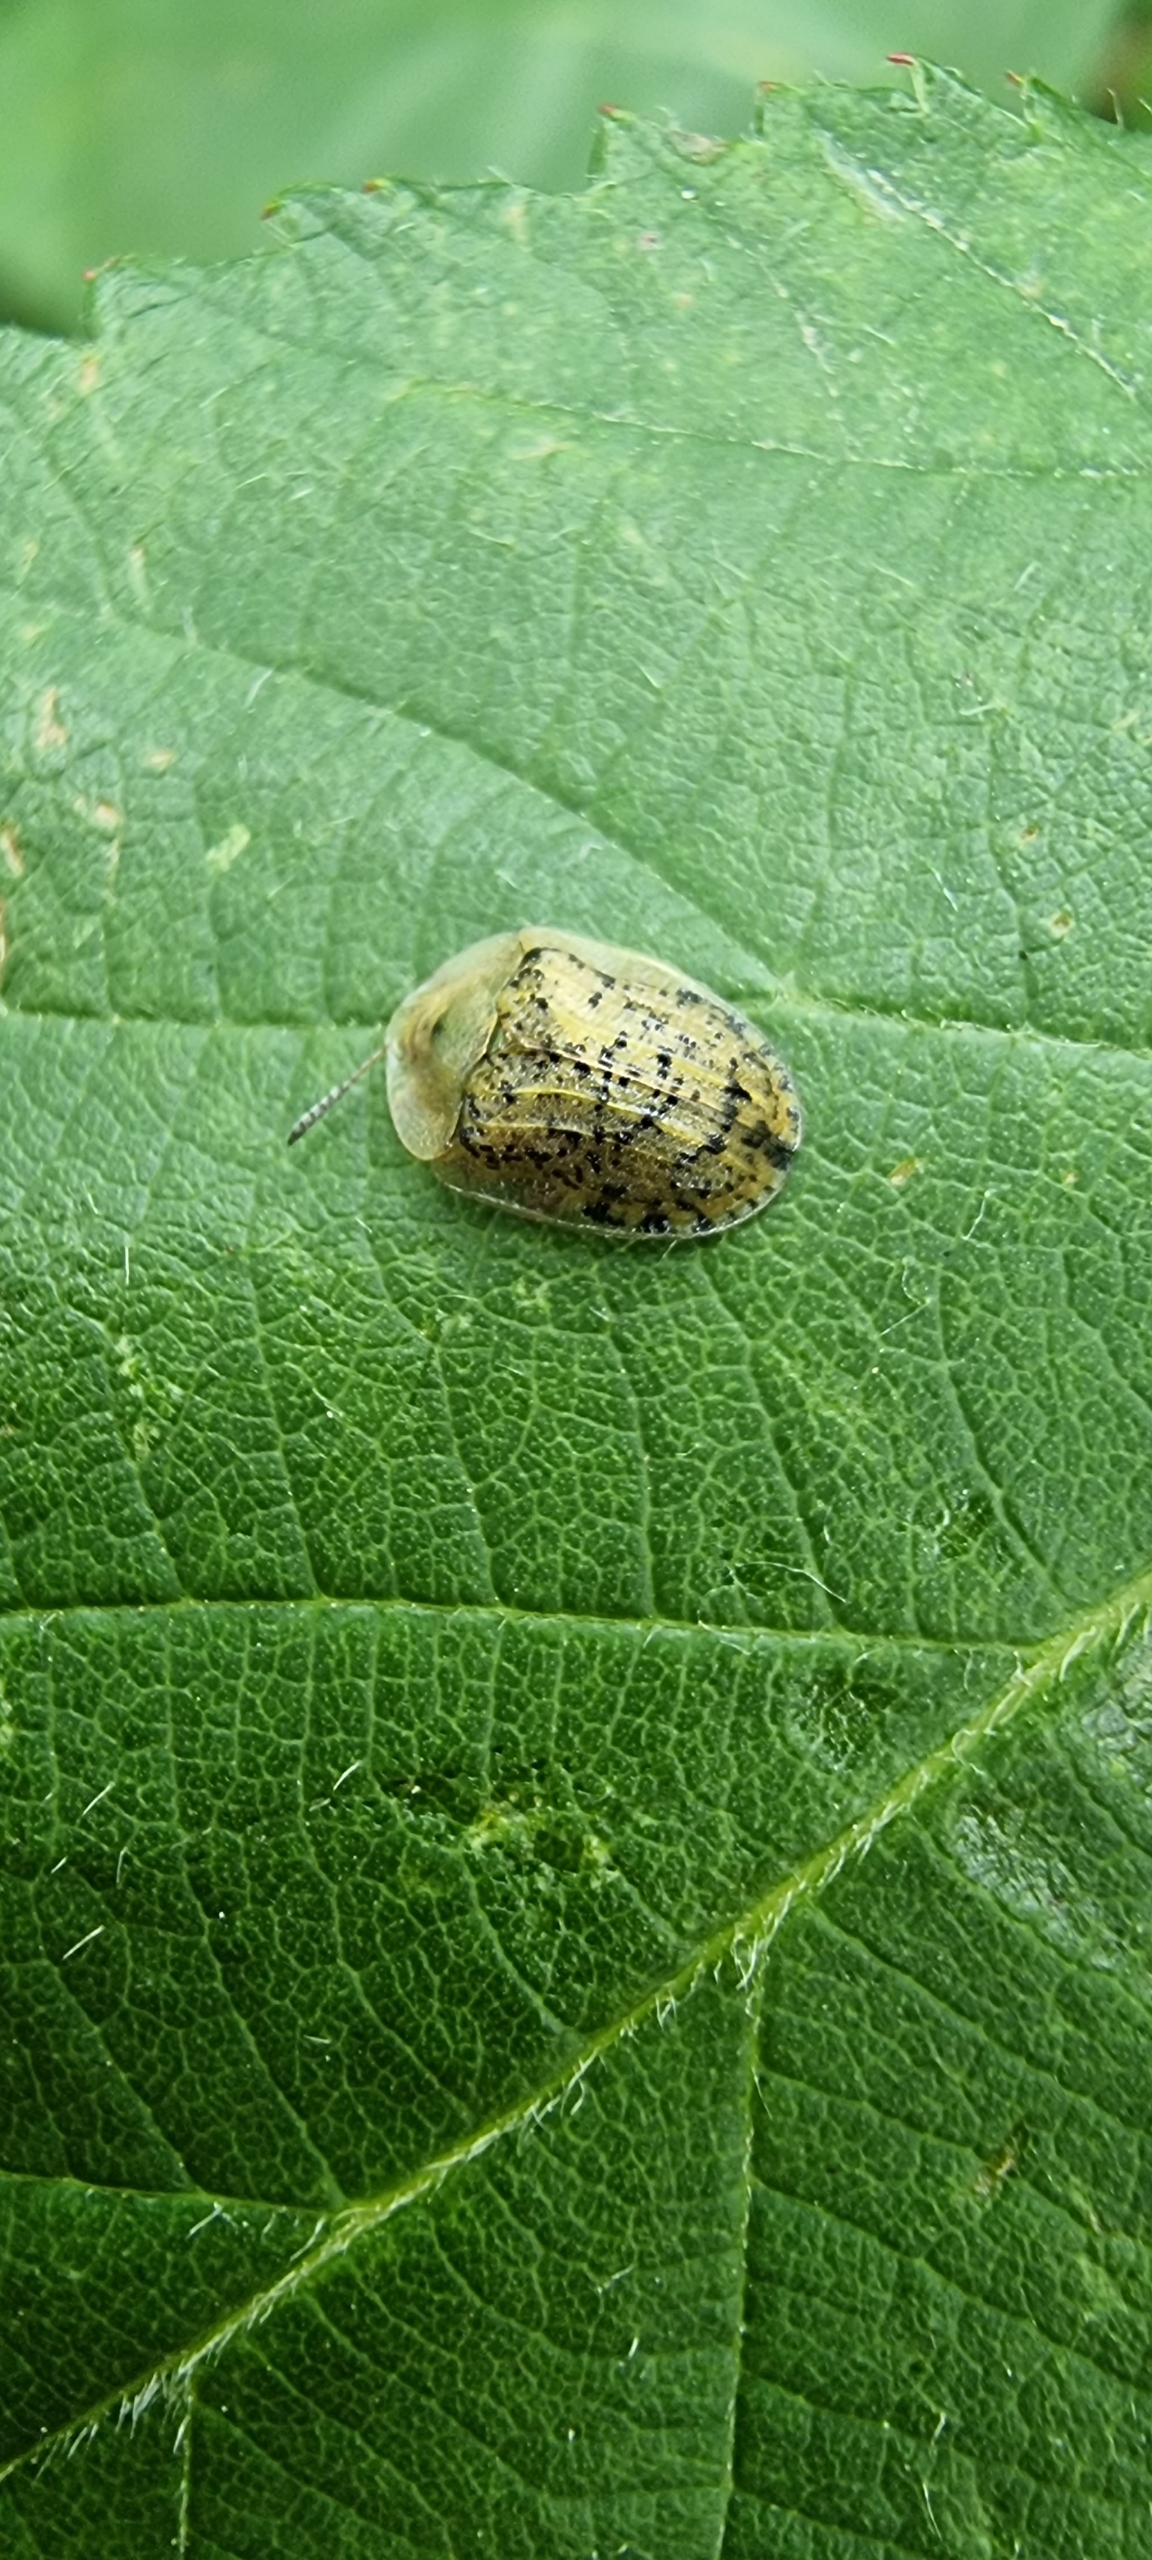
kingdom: Animalia
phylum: Arthropoda
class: Insecta
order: Coleoptera
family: Chrysomelidae
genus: Cassida
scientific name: Cassida nebulosa
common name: Plettet skjoldbille
